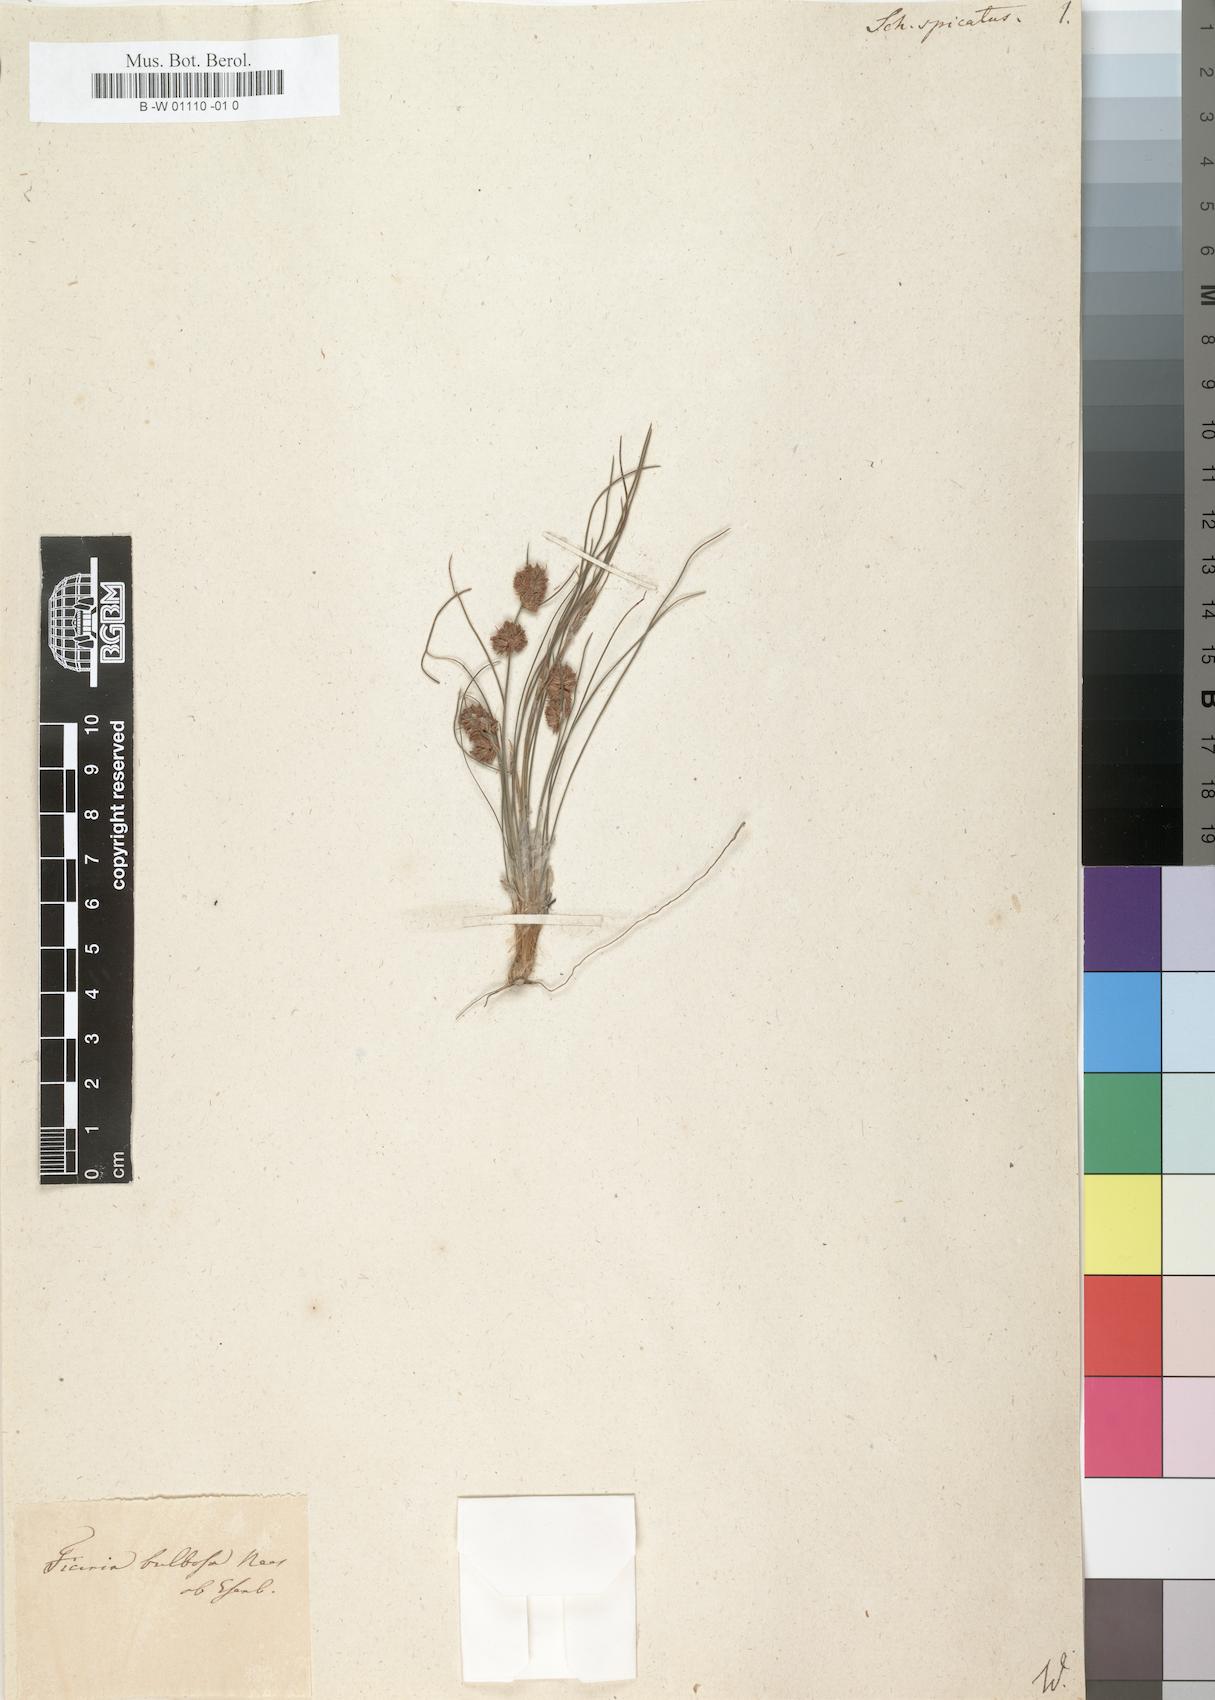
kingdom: Plantae
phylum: Tracheophyta
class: Liliopsida
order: Poales
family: Cyperaceae
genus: Ficinia
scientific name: Ficinia bulbosa
